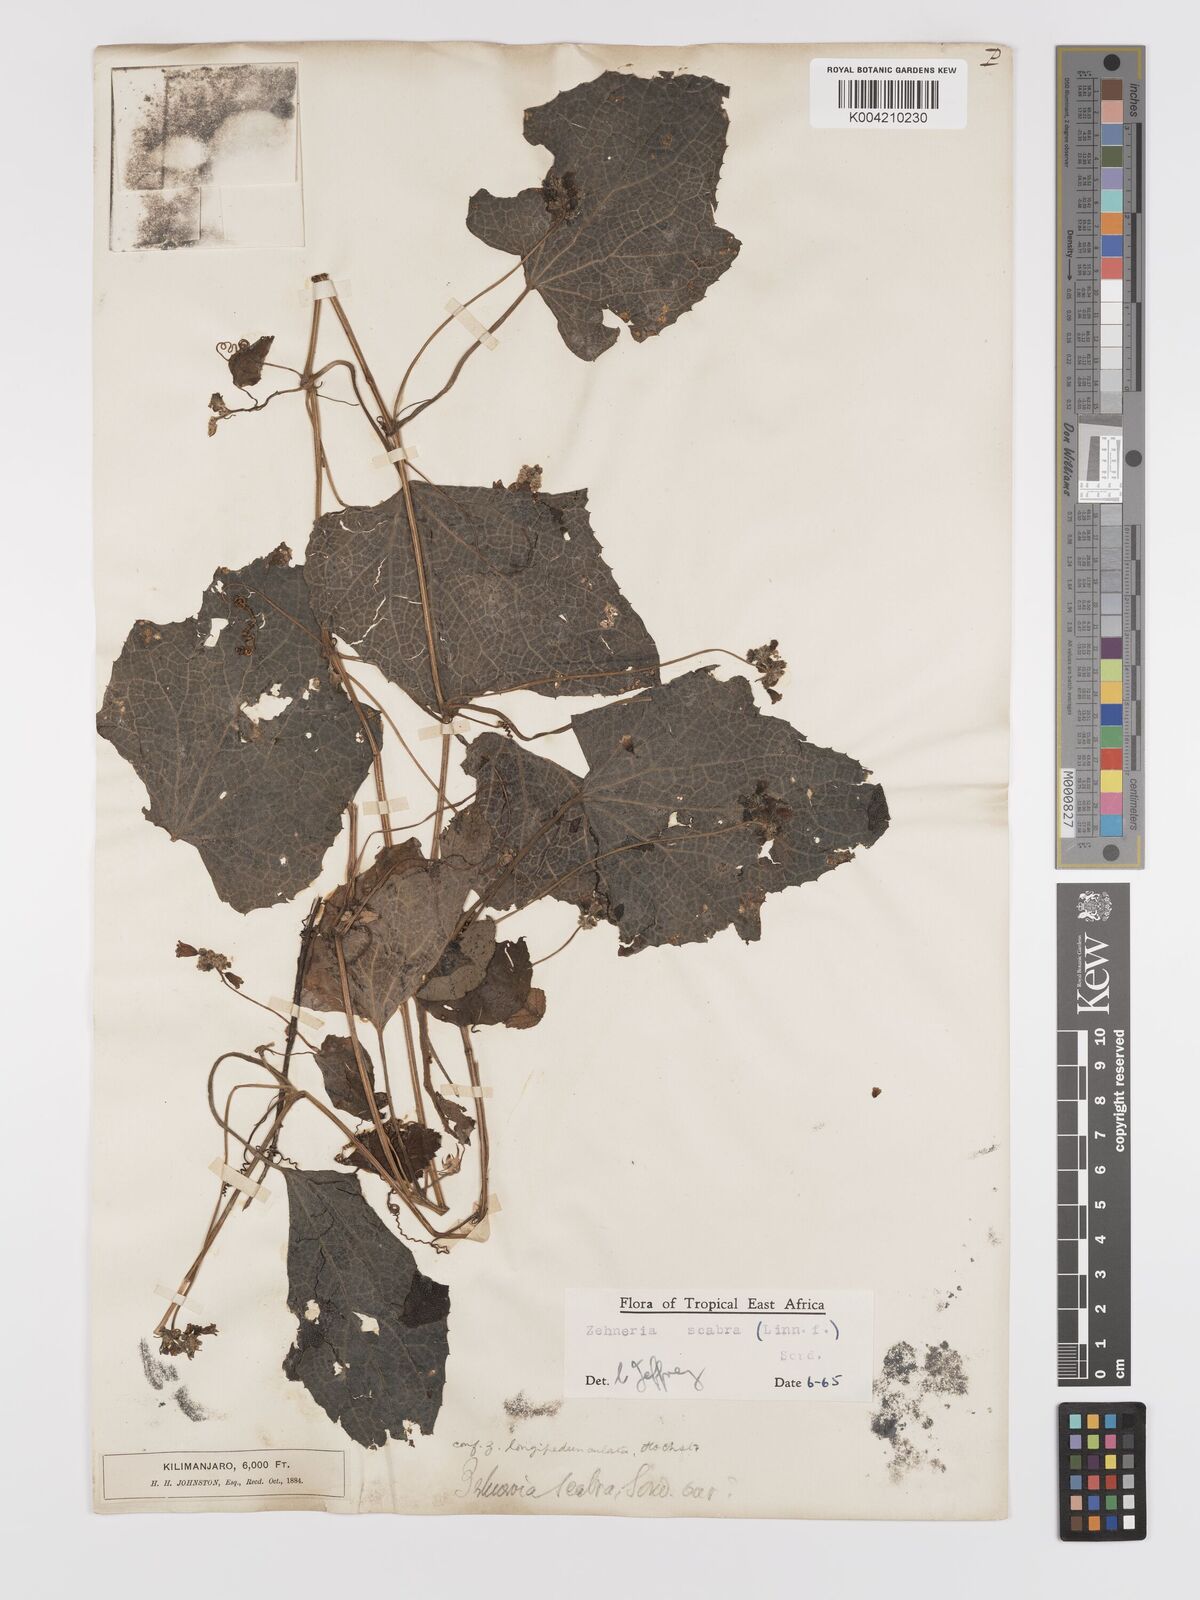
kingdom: Plantae
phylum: Tracheophyta
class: Magnoliopsida
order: Cucurbitales
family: Cucurbitaceae
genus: Zehneria
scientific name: Zehneria scabra
